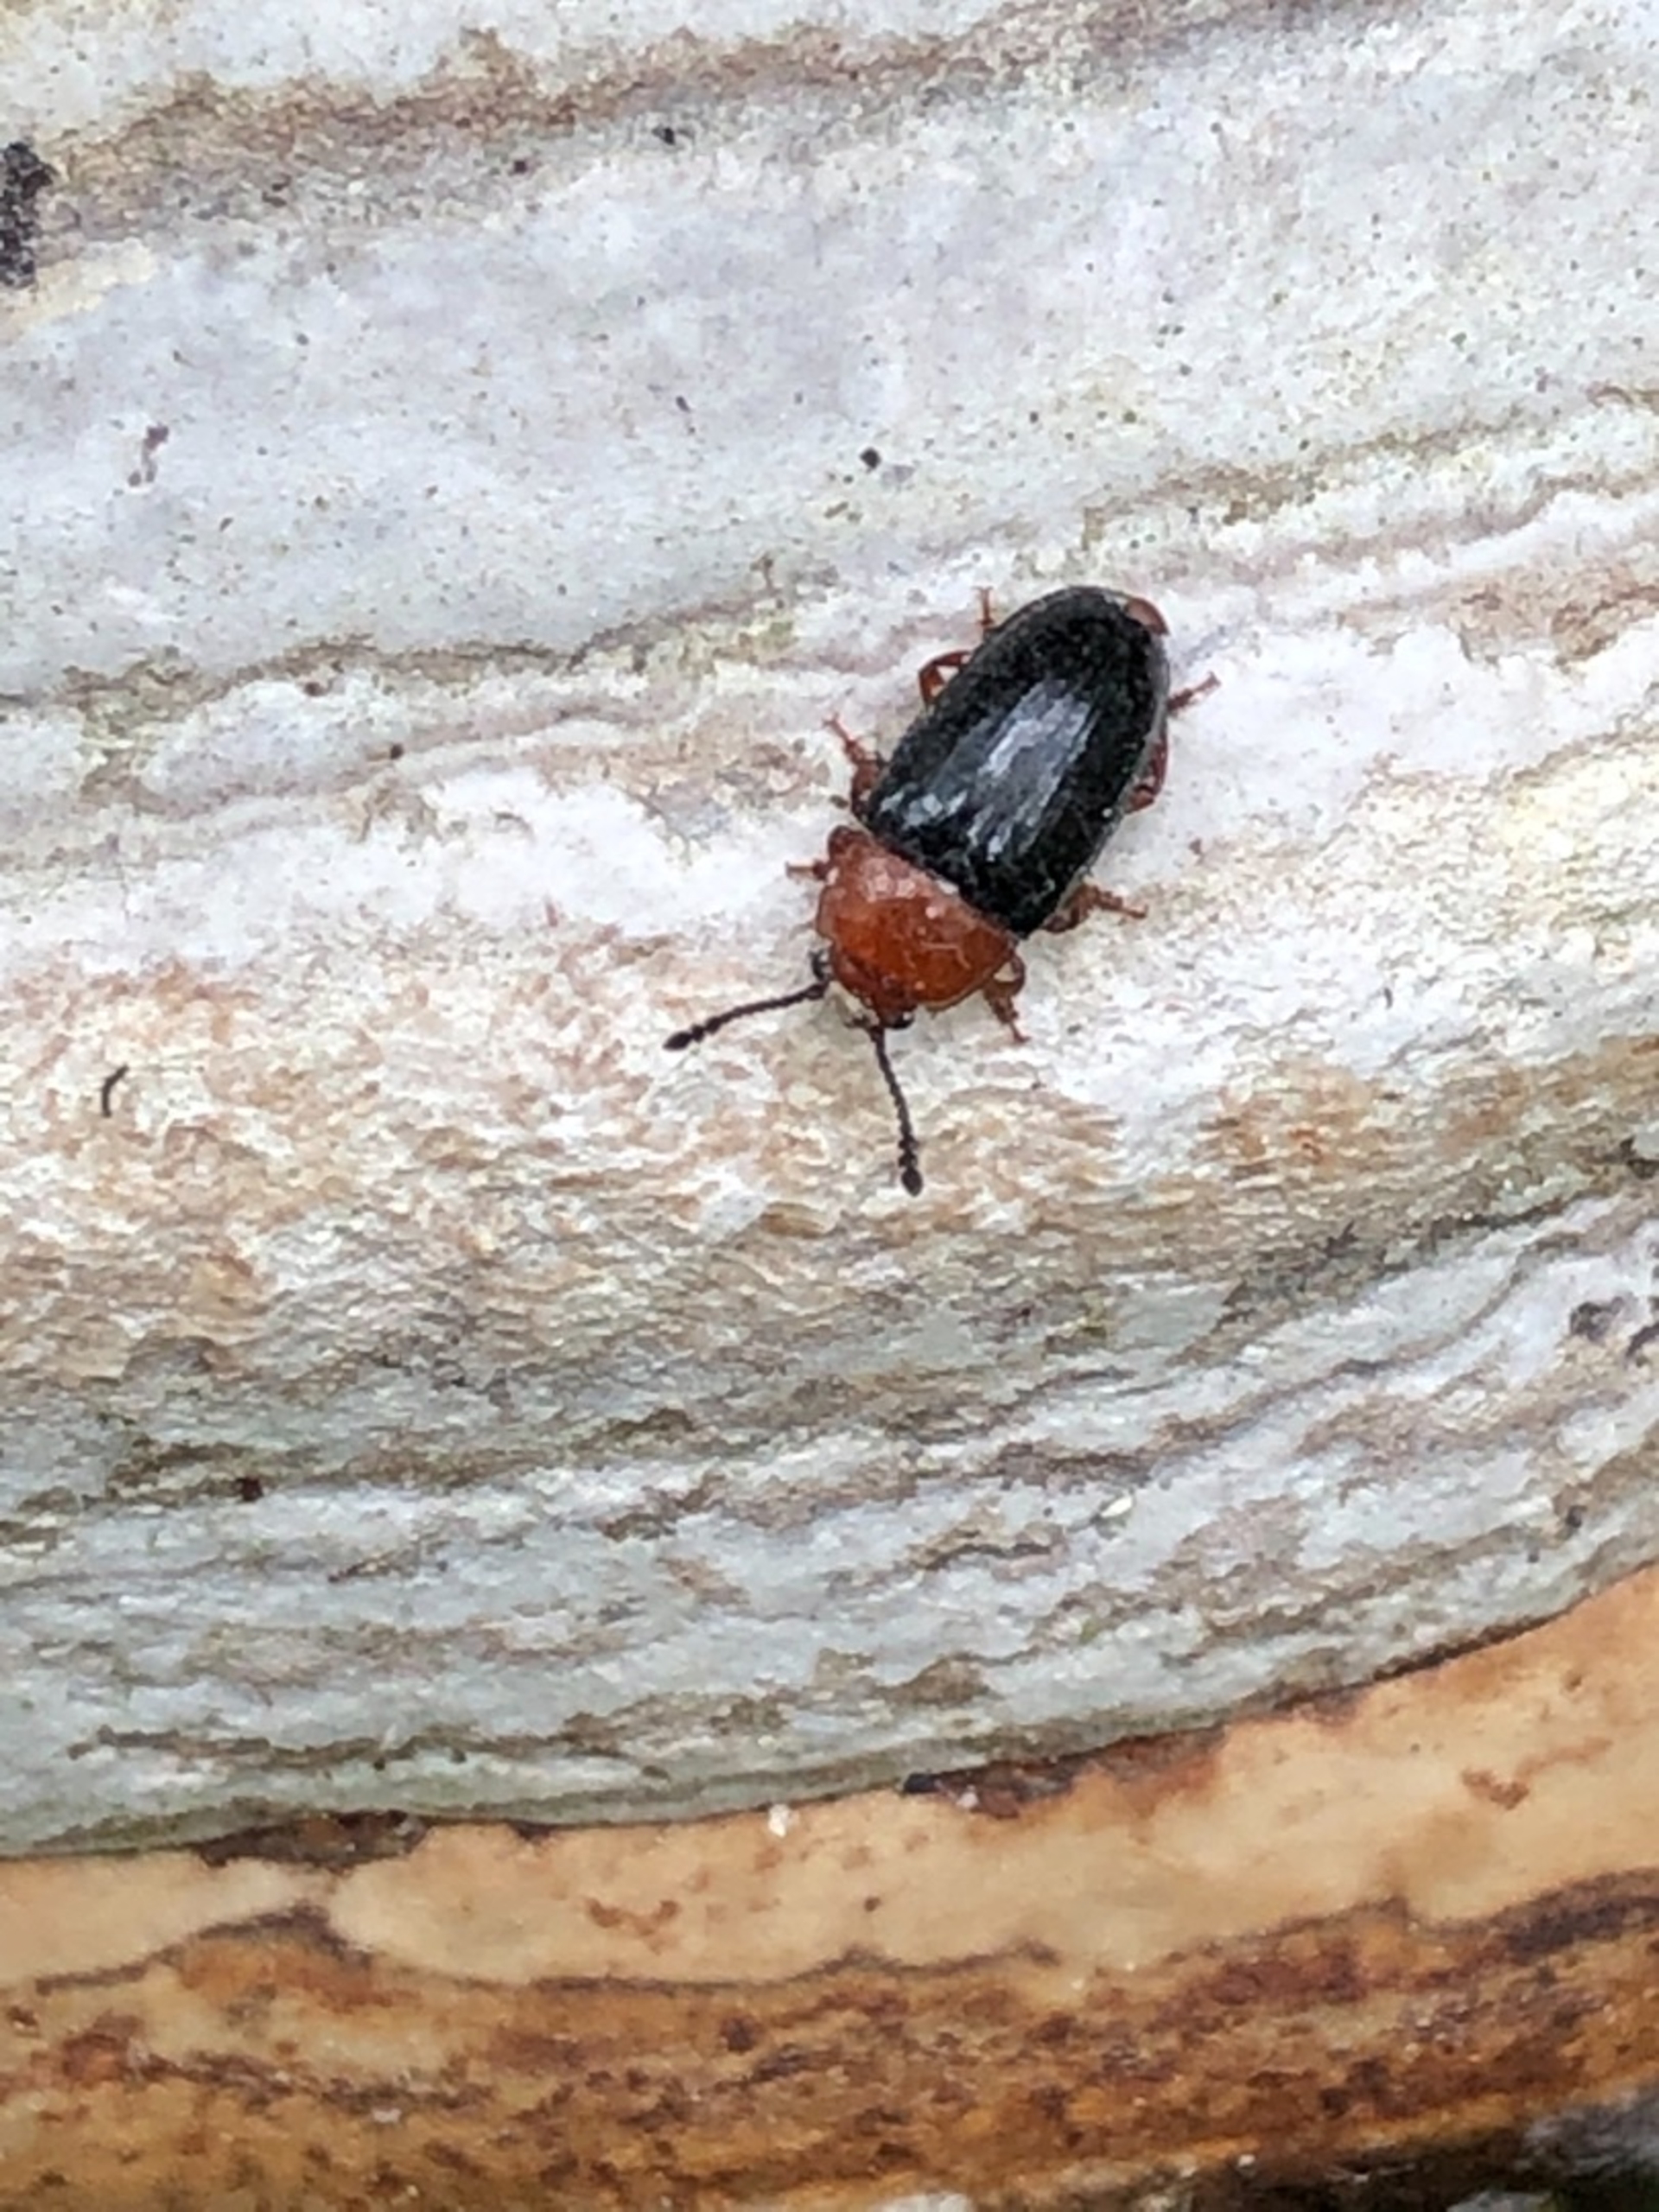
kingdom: Animalia
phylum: Arthropoda
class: Insecta
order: Coleoptera
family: Erotylidae
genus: Triplax
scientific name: Triplax russica
